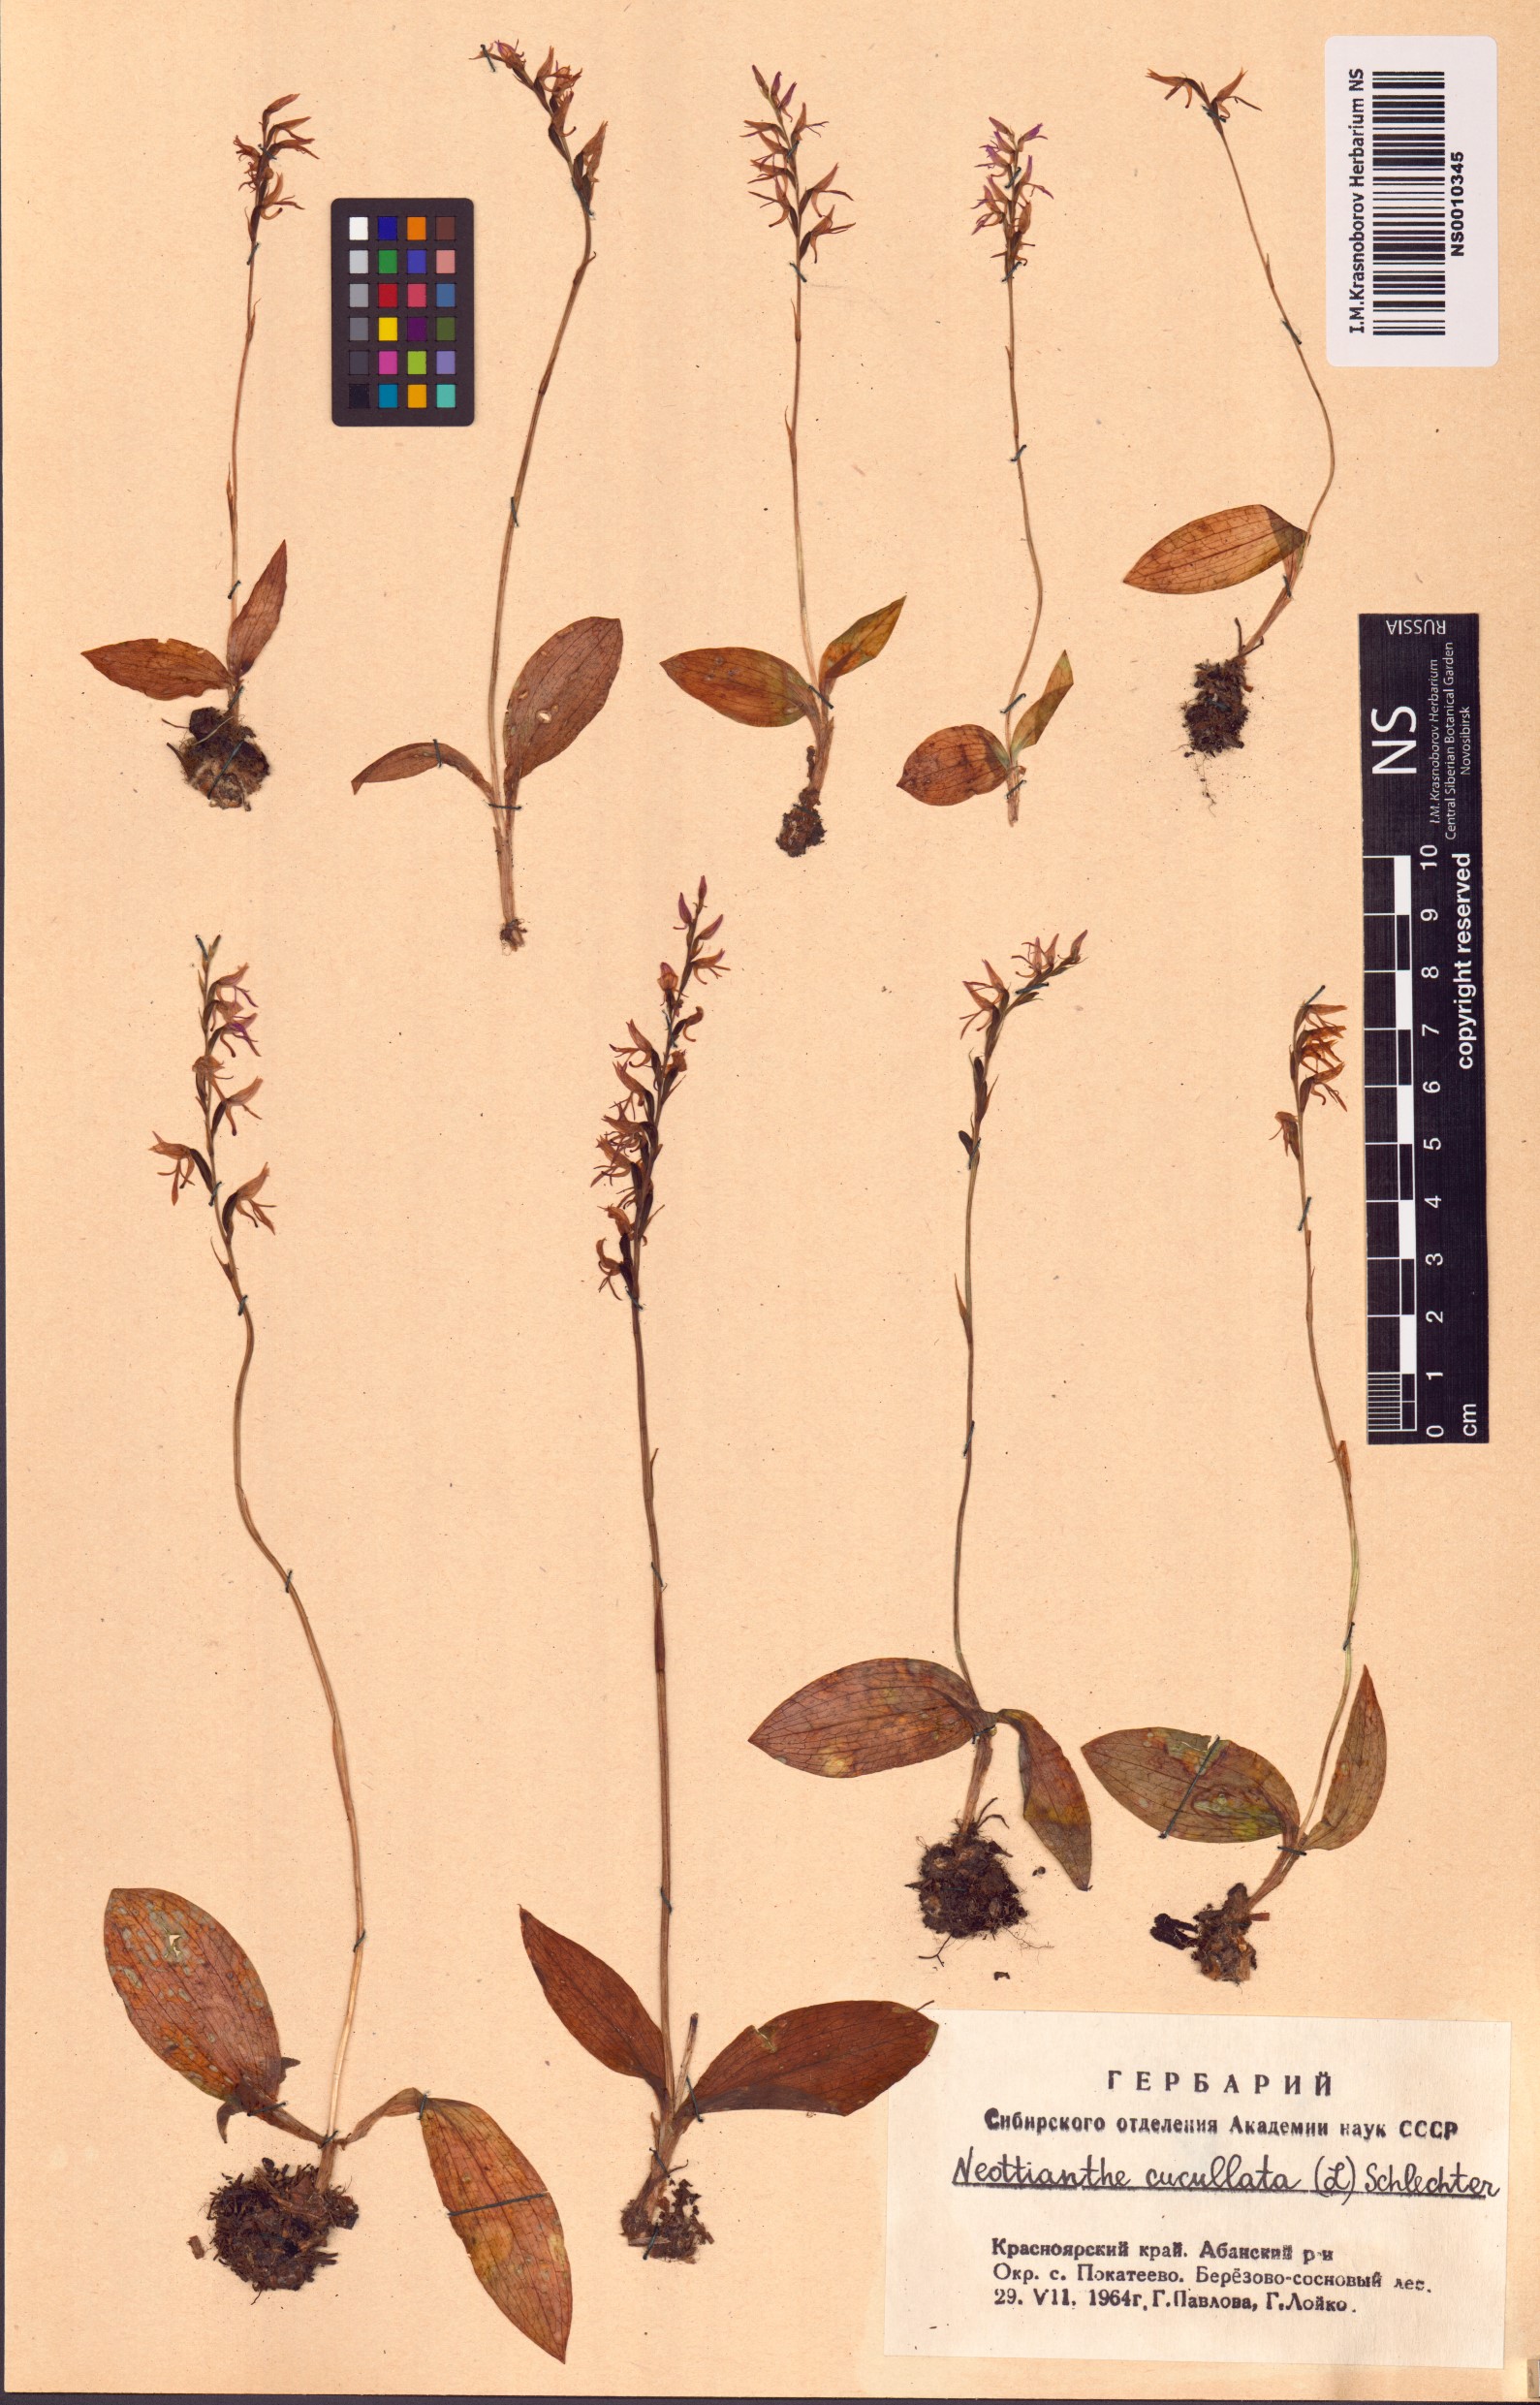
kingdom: Plantae
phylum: Tracheophyta
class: Liliopsida
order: Asparagales
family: Orchidaceae
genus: Hemipilia
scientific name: Hemipilia cucullata
